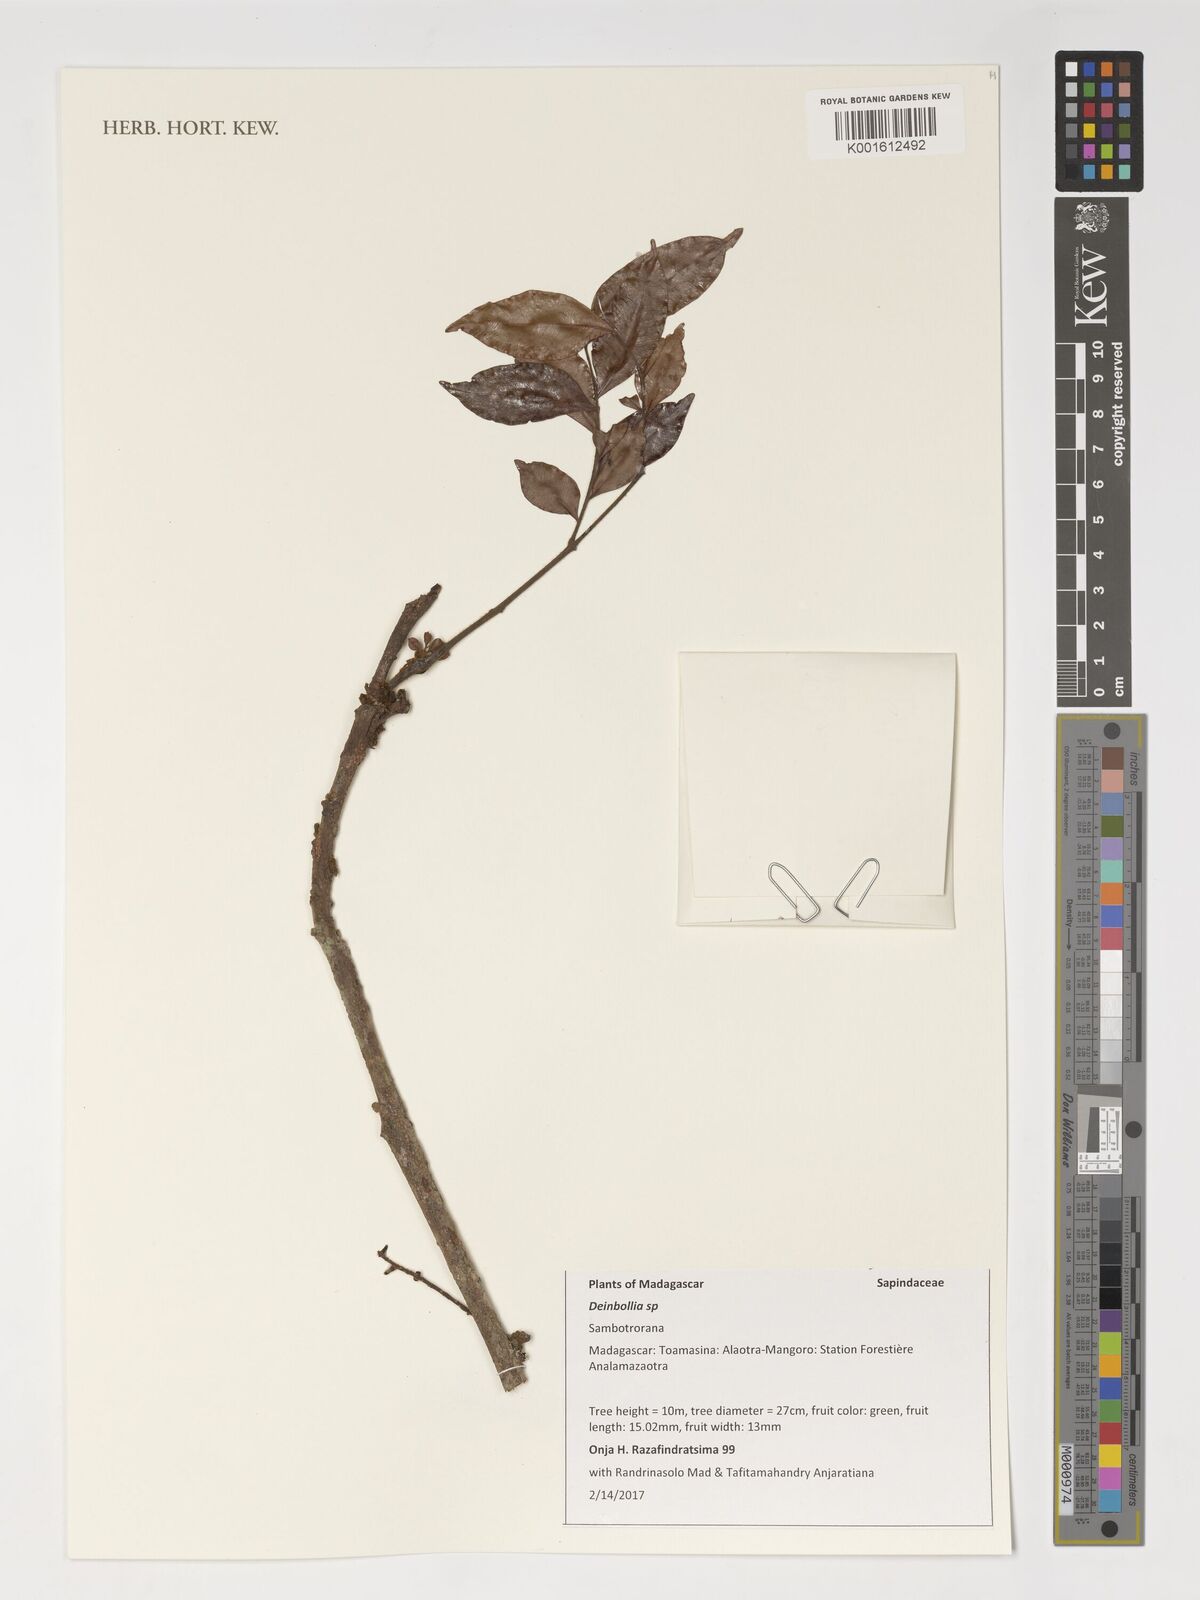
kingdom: Plantae
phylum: Tracheophyta
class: Magnoliopsida
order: Sapindales
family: Sapindaceae
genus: Deinbollia
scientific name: Deinbollia
